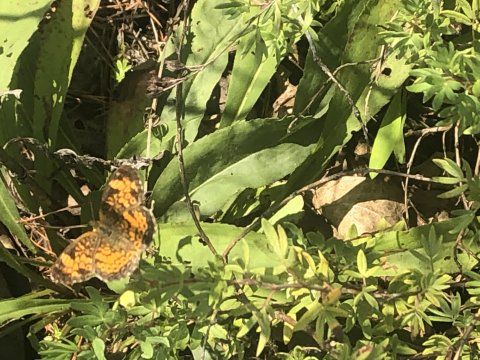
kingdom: Animalia
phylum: Arthropoda
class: Insecta
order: Lepidoptera
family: Nymphalidae
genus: Phyciodes
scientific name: Phyciodes
